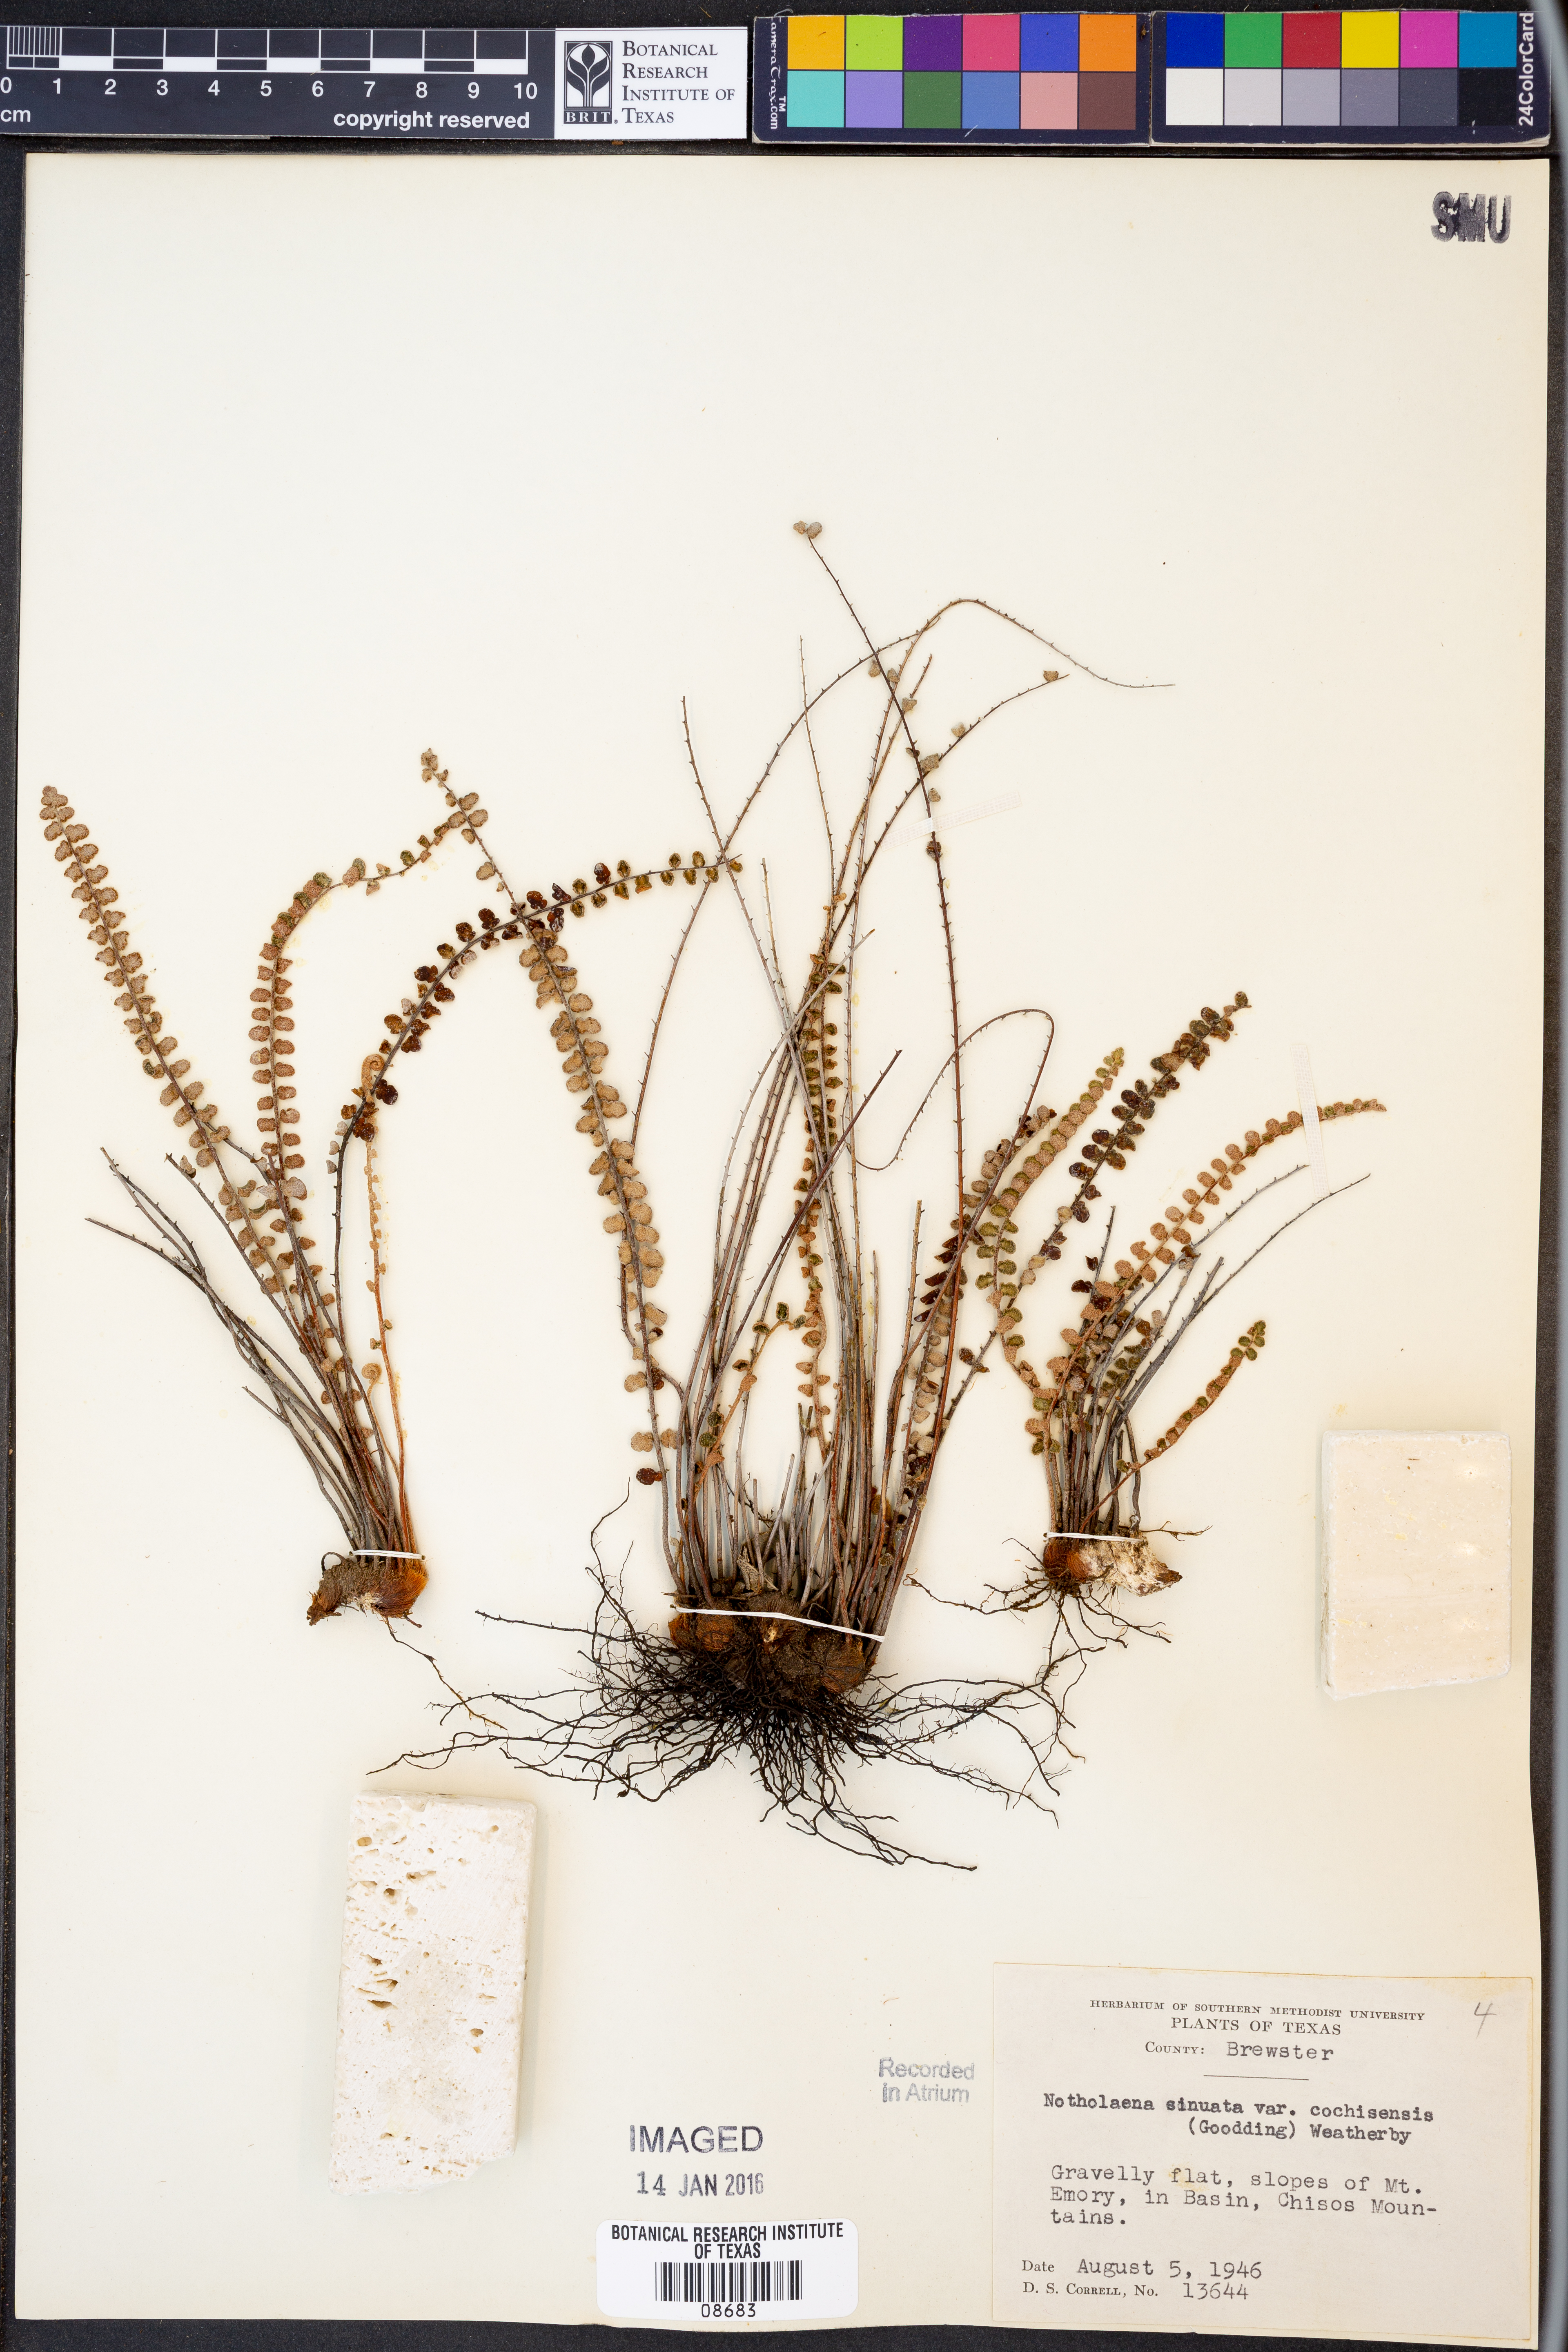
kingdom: Plantae
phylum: Tracheophyta
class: Polypodiopsida
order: Polypodiales
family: Pteridaceae
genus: Astrolepis
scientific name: Astrolepis cochisensis
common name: Scaly cloak fern
